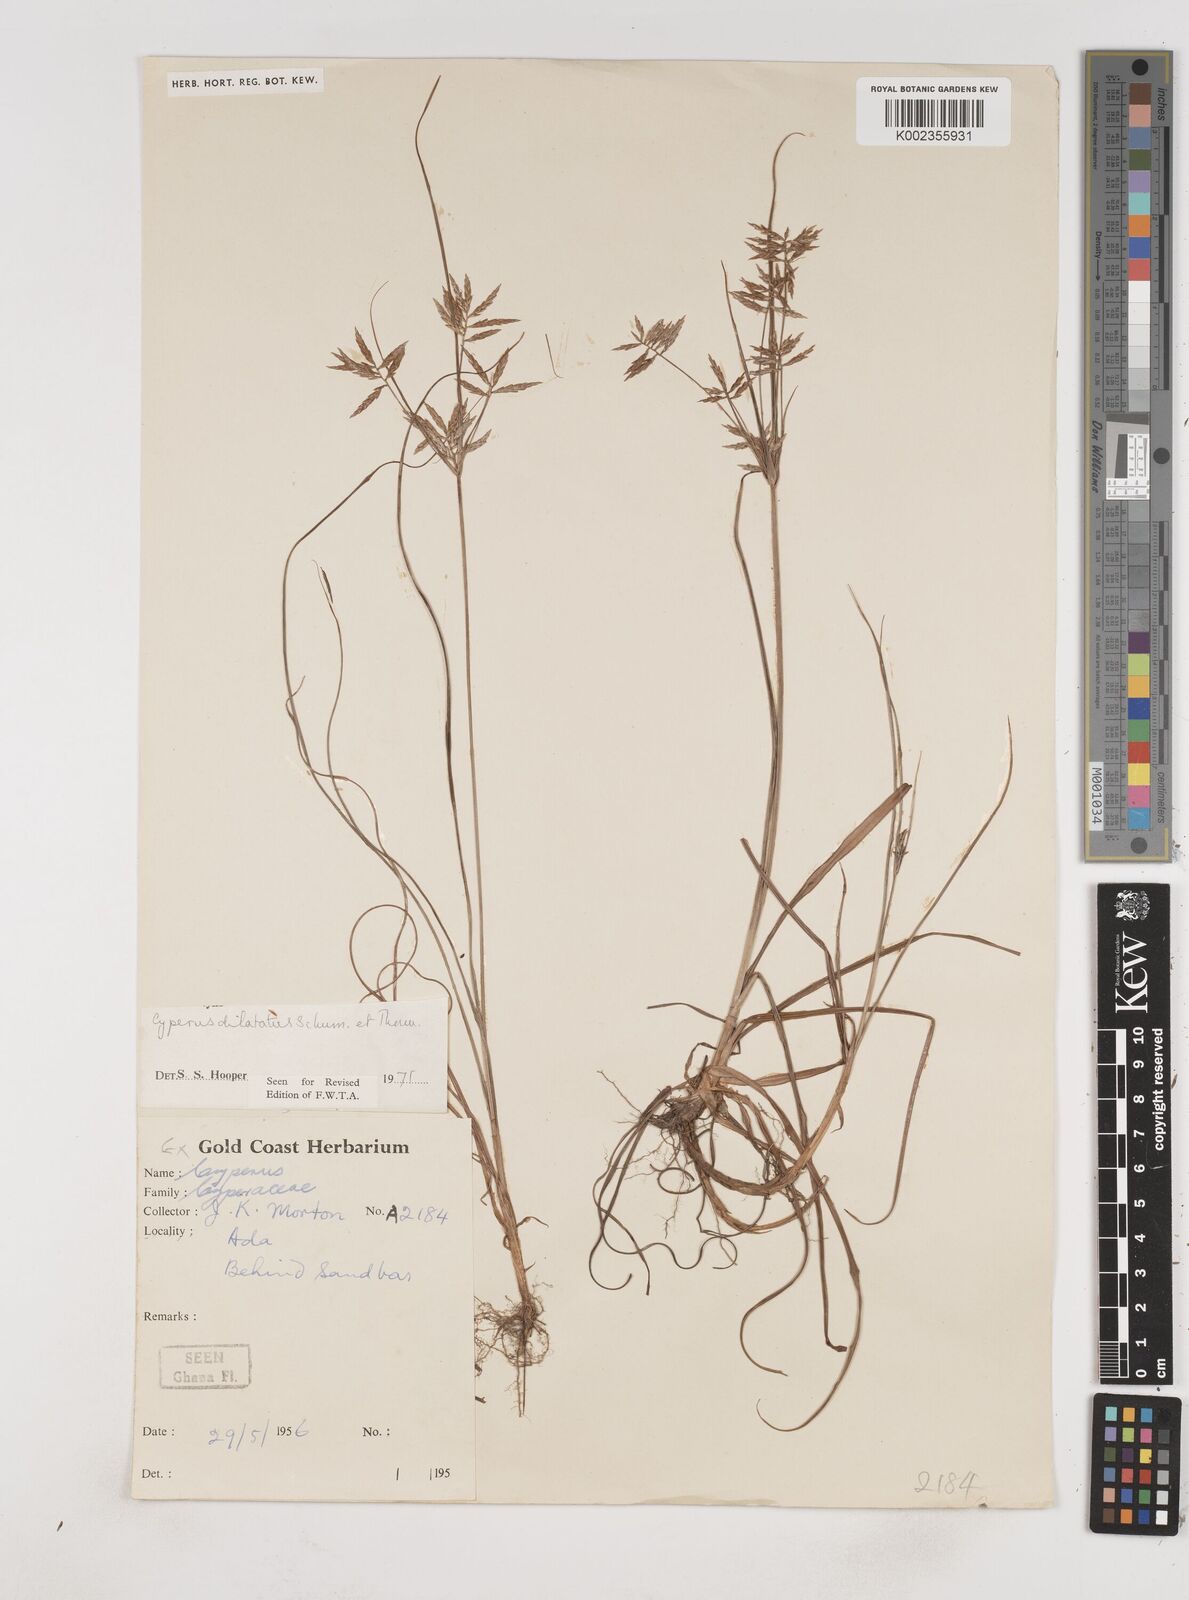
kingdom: Plantae
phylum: Tracheophyta
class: Liliopsida
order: Poales
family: Cyperaceae
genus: Cyperus
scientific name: Cyperus dilatatus
